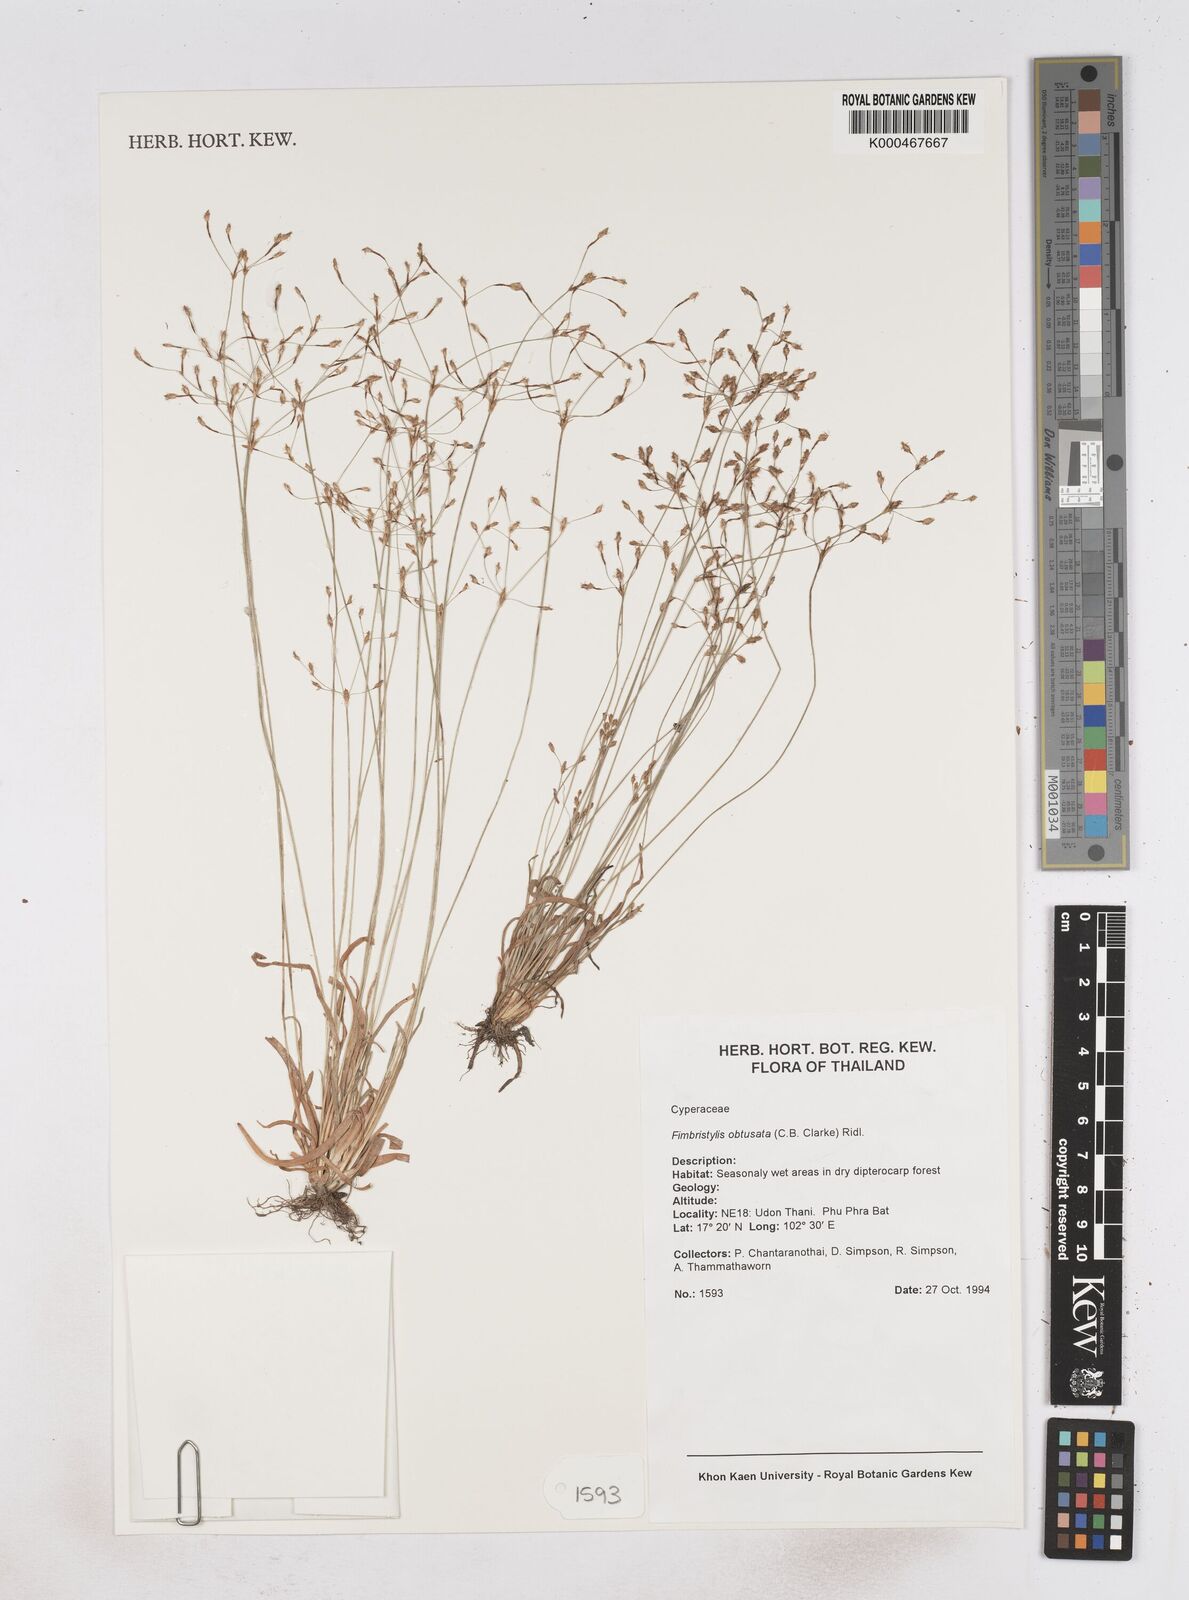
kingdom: Plantae
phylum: Tracheophyta
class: Liliopsida
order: Poales
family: Cyperaceae
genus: Fimbristylis
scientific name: Fimbristylis obtusata
